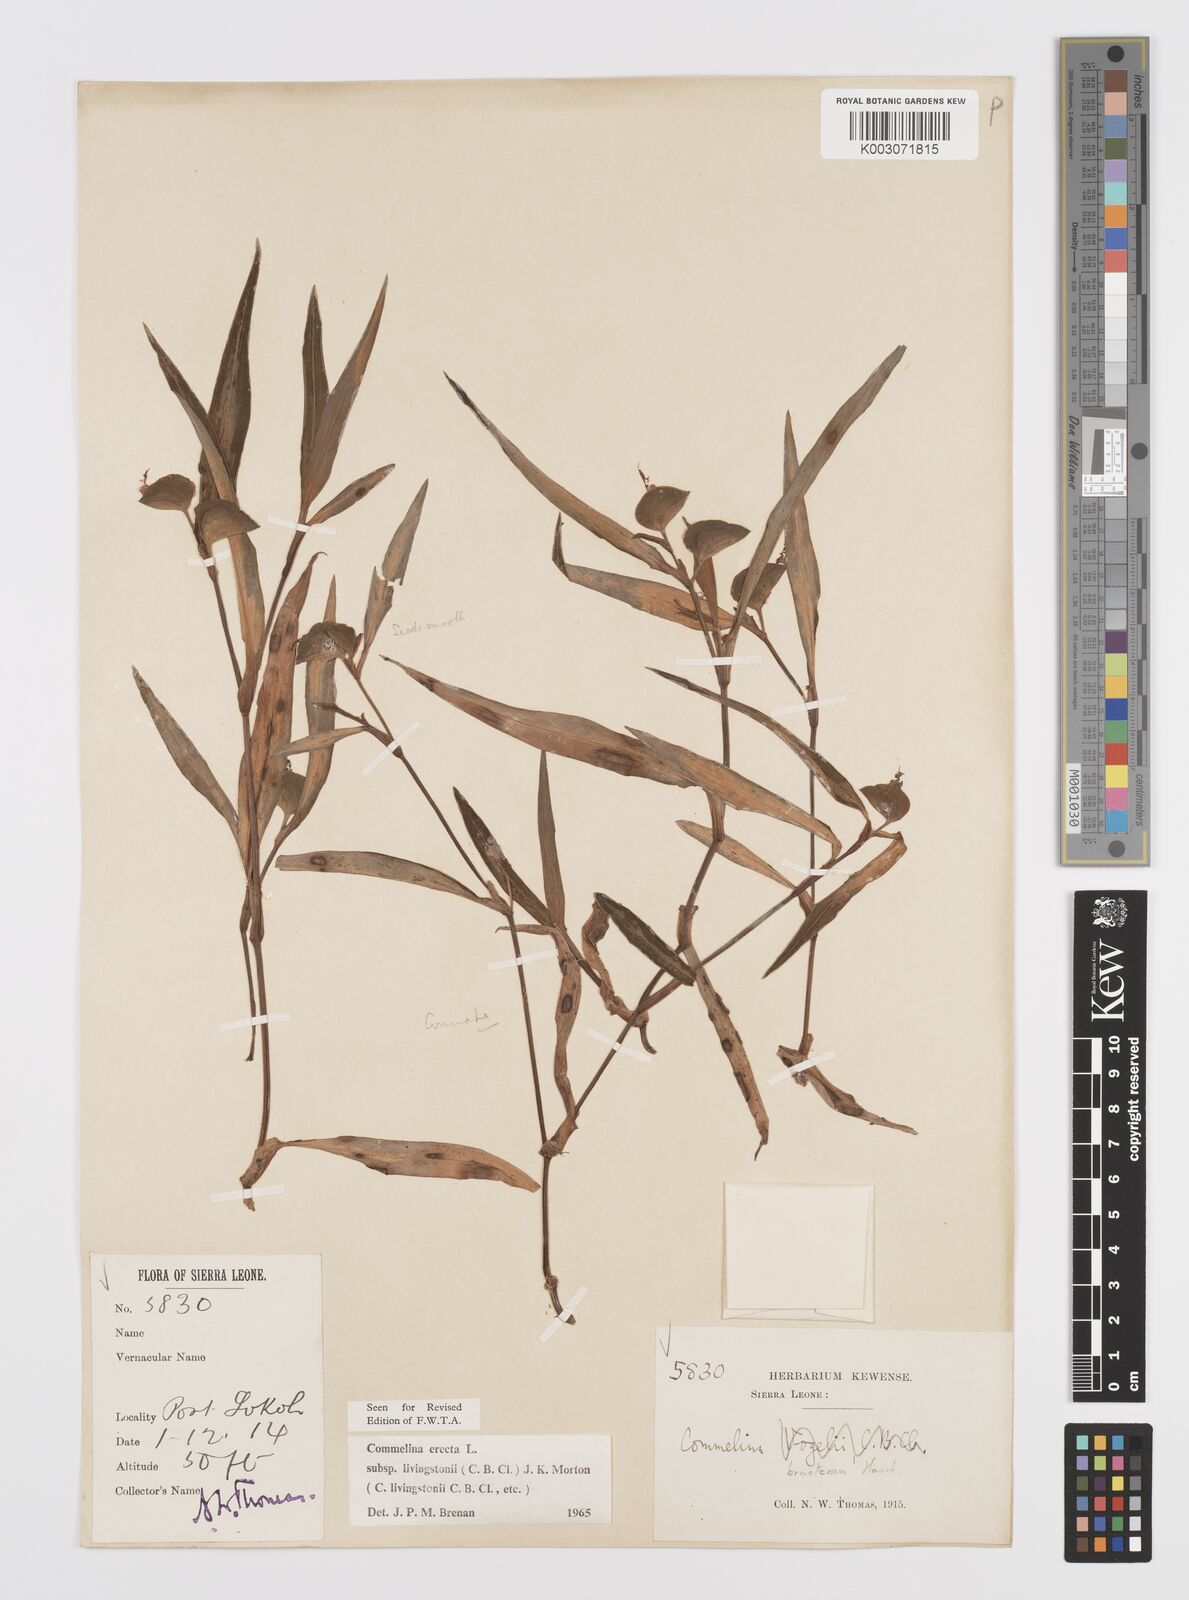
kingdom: Plantae
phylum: Tracheophyta
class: Liliopsida
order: Commelinales
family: Commelinaceae
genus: Commelina
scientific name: Commelina erecta
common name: Blousel blommetjie
